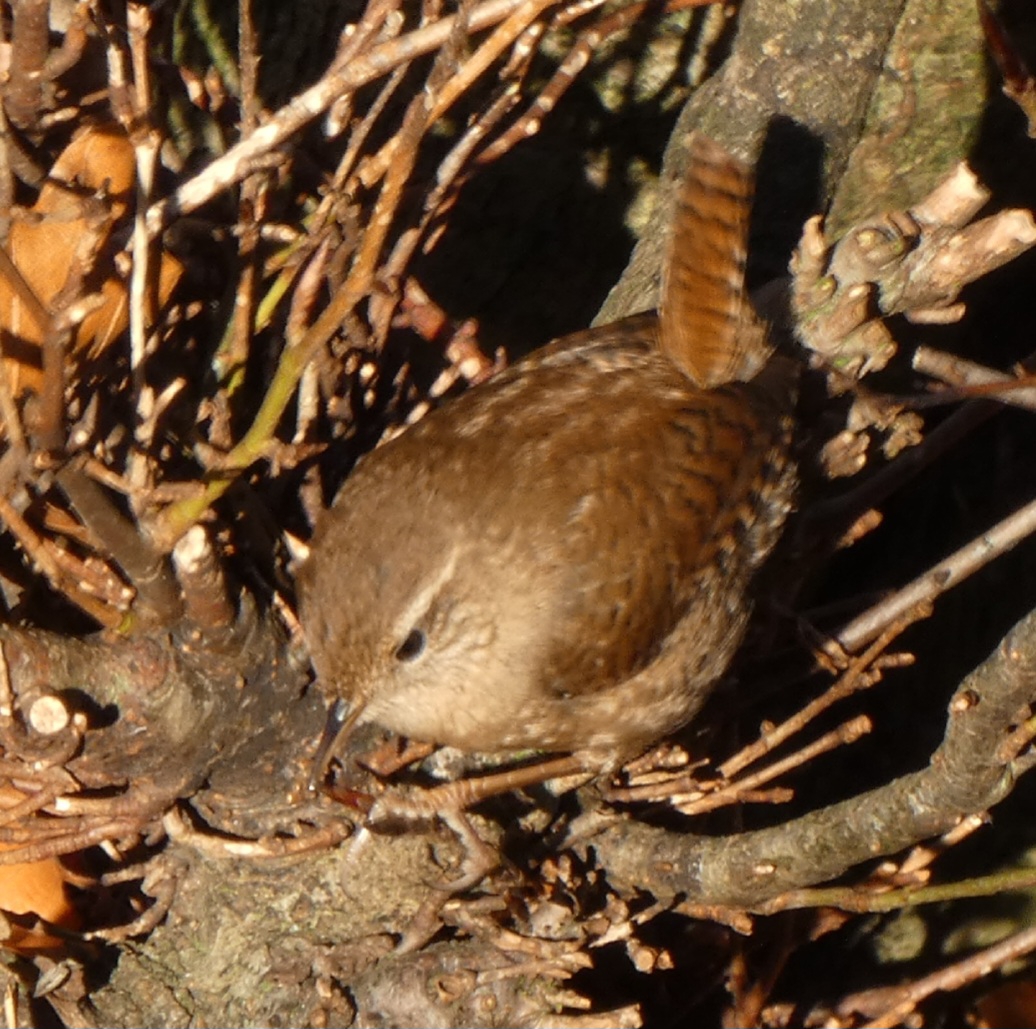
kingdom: Animalia
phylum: Chordata
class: Aves
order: Passeriformes
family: Troglodytidae
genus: Troglodytes
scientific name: Troglodytes troglodytes
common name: Gærdesmutte
